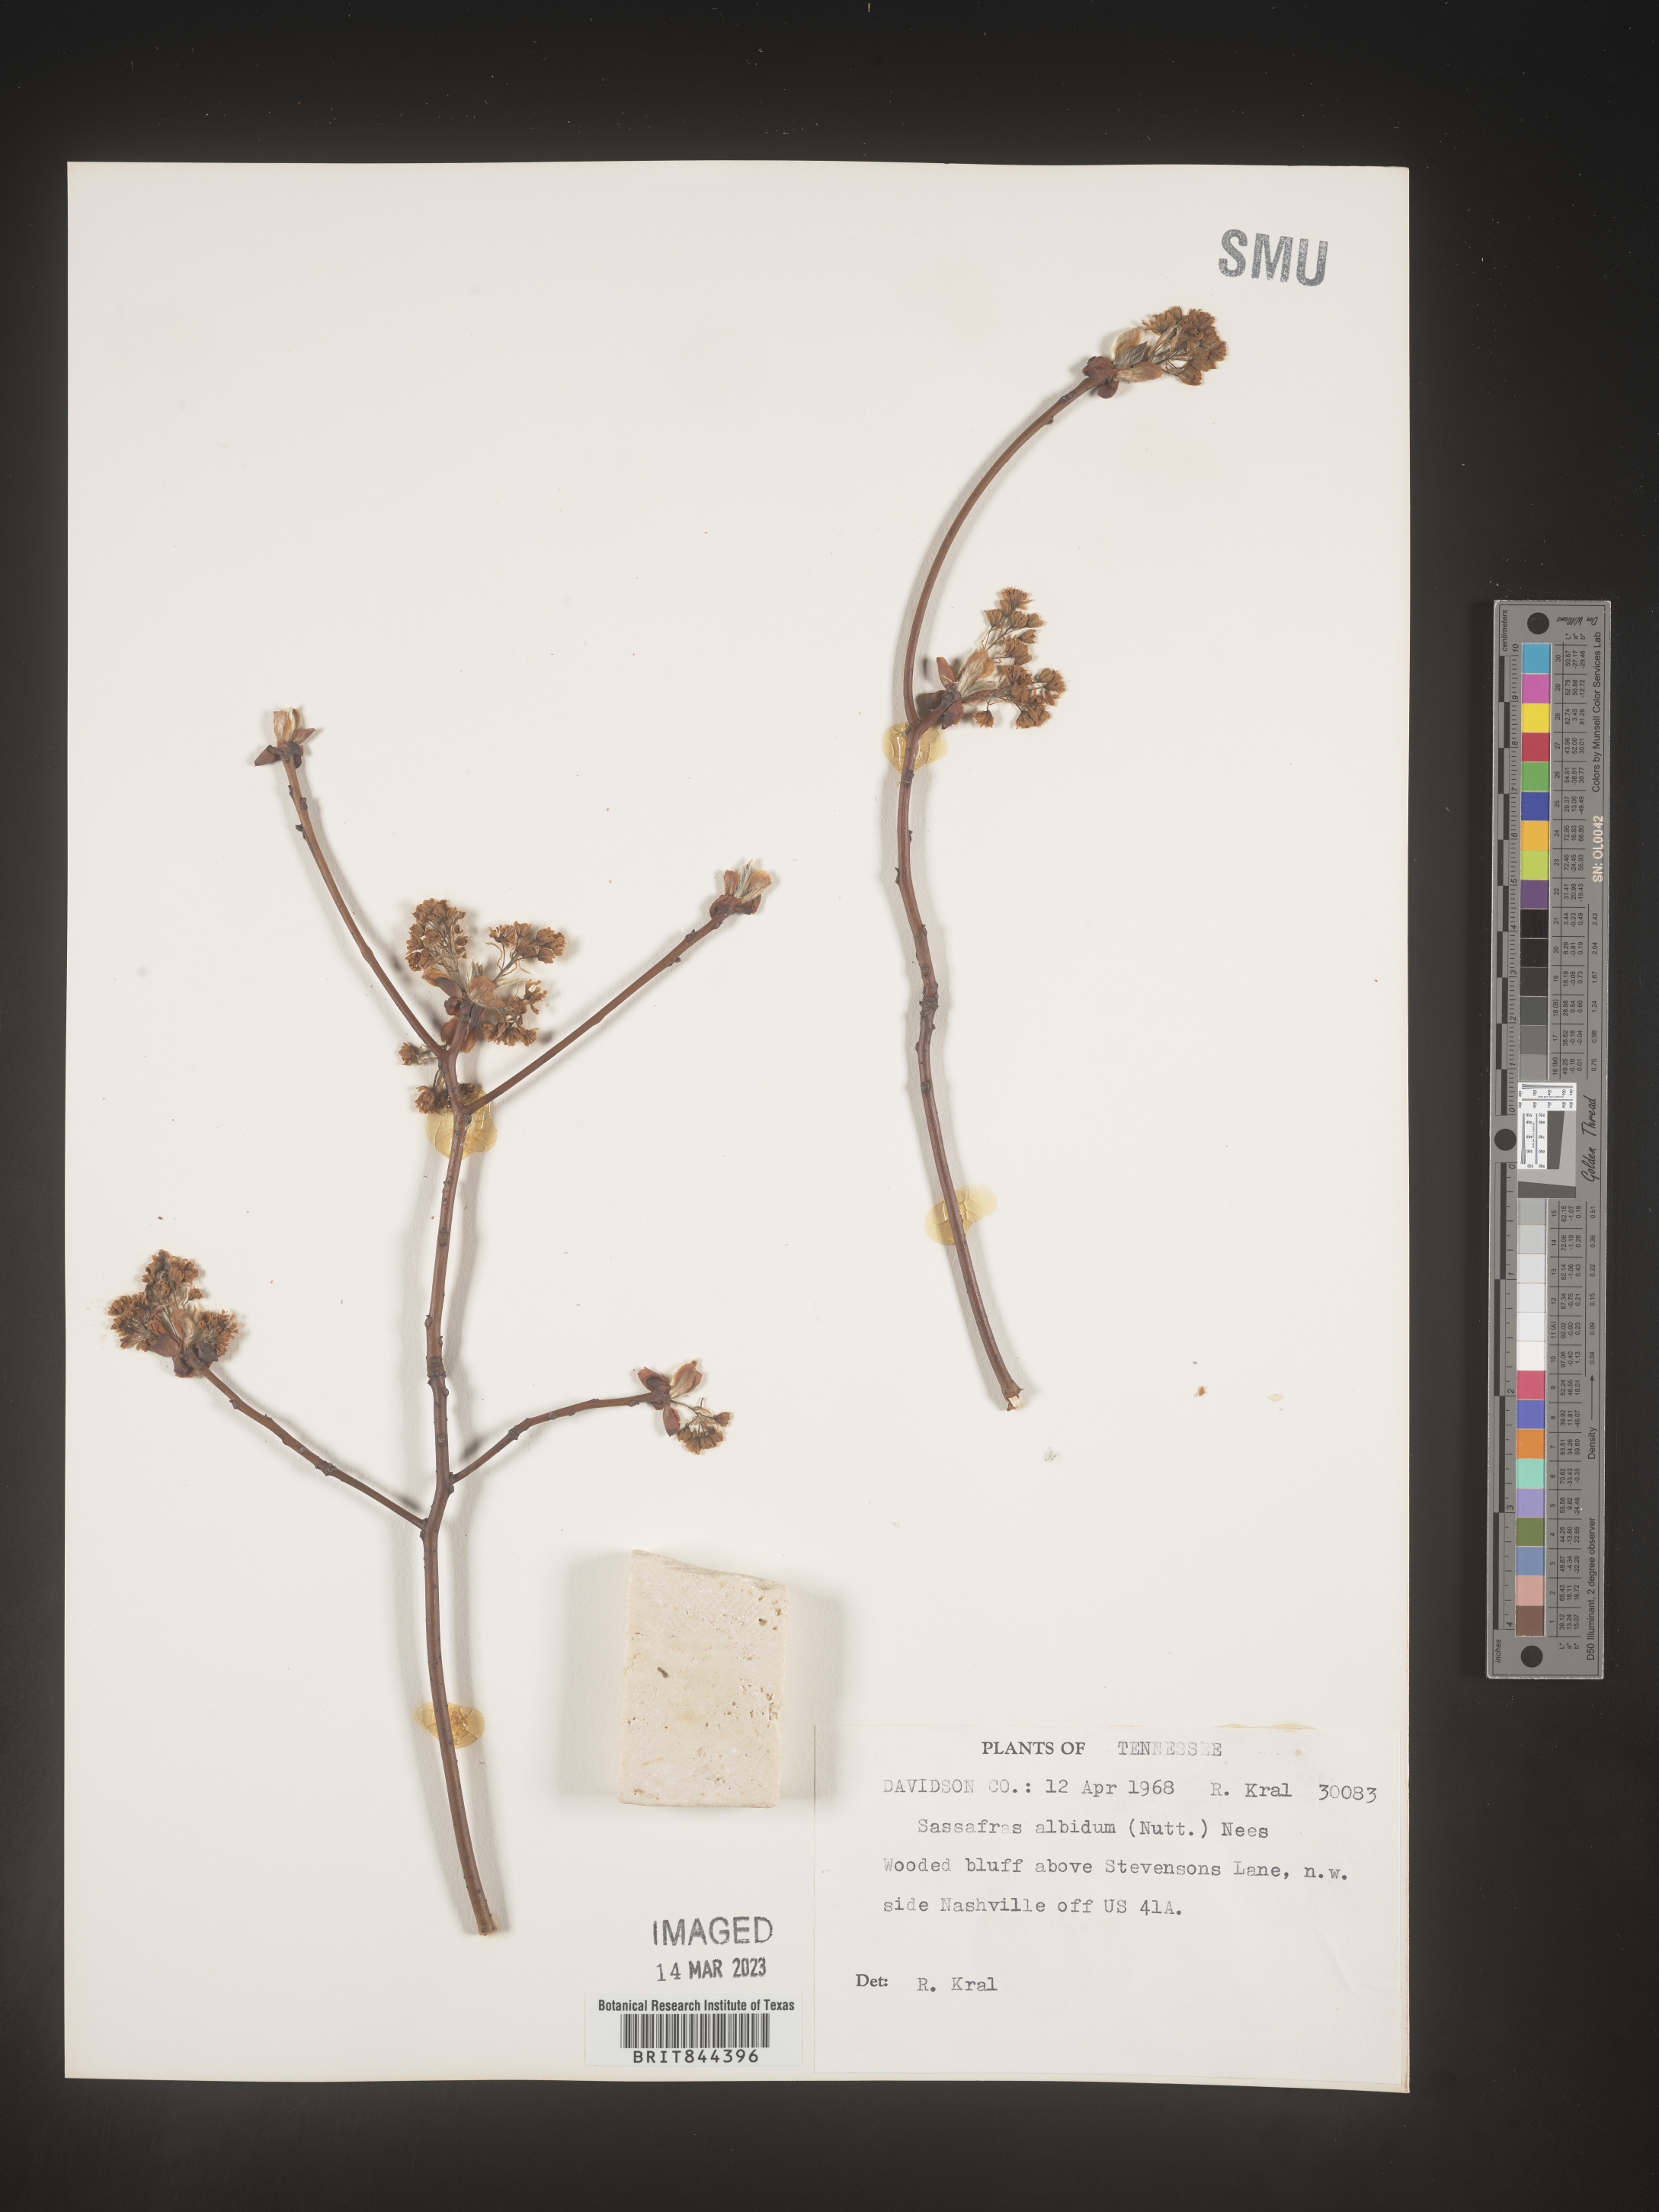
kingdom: Plantae
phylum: Tracheophyta
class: Magnoliopsida
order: Laurales
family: Lauraceae
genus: Sassafras
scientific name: Sassafras albidum
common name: Sassafras
